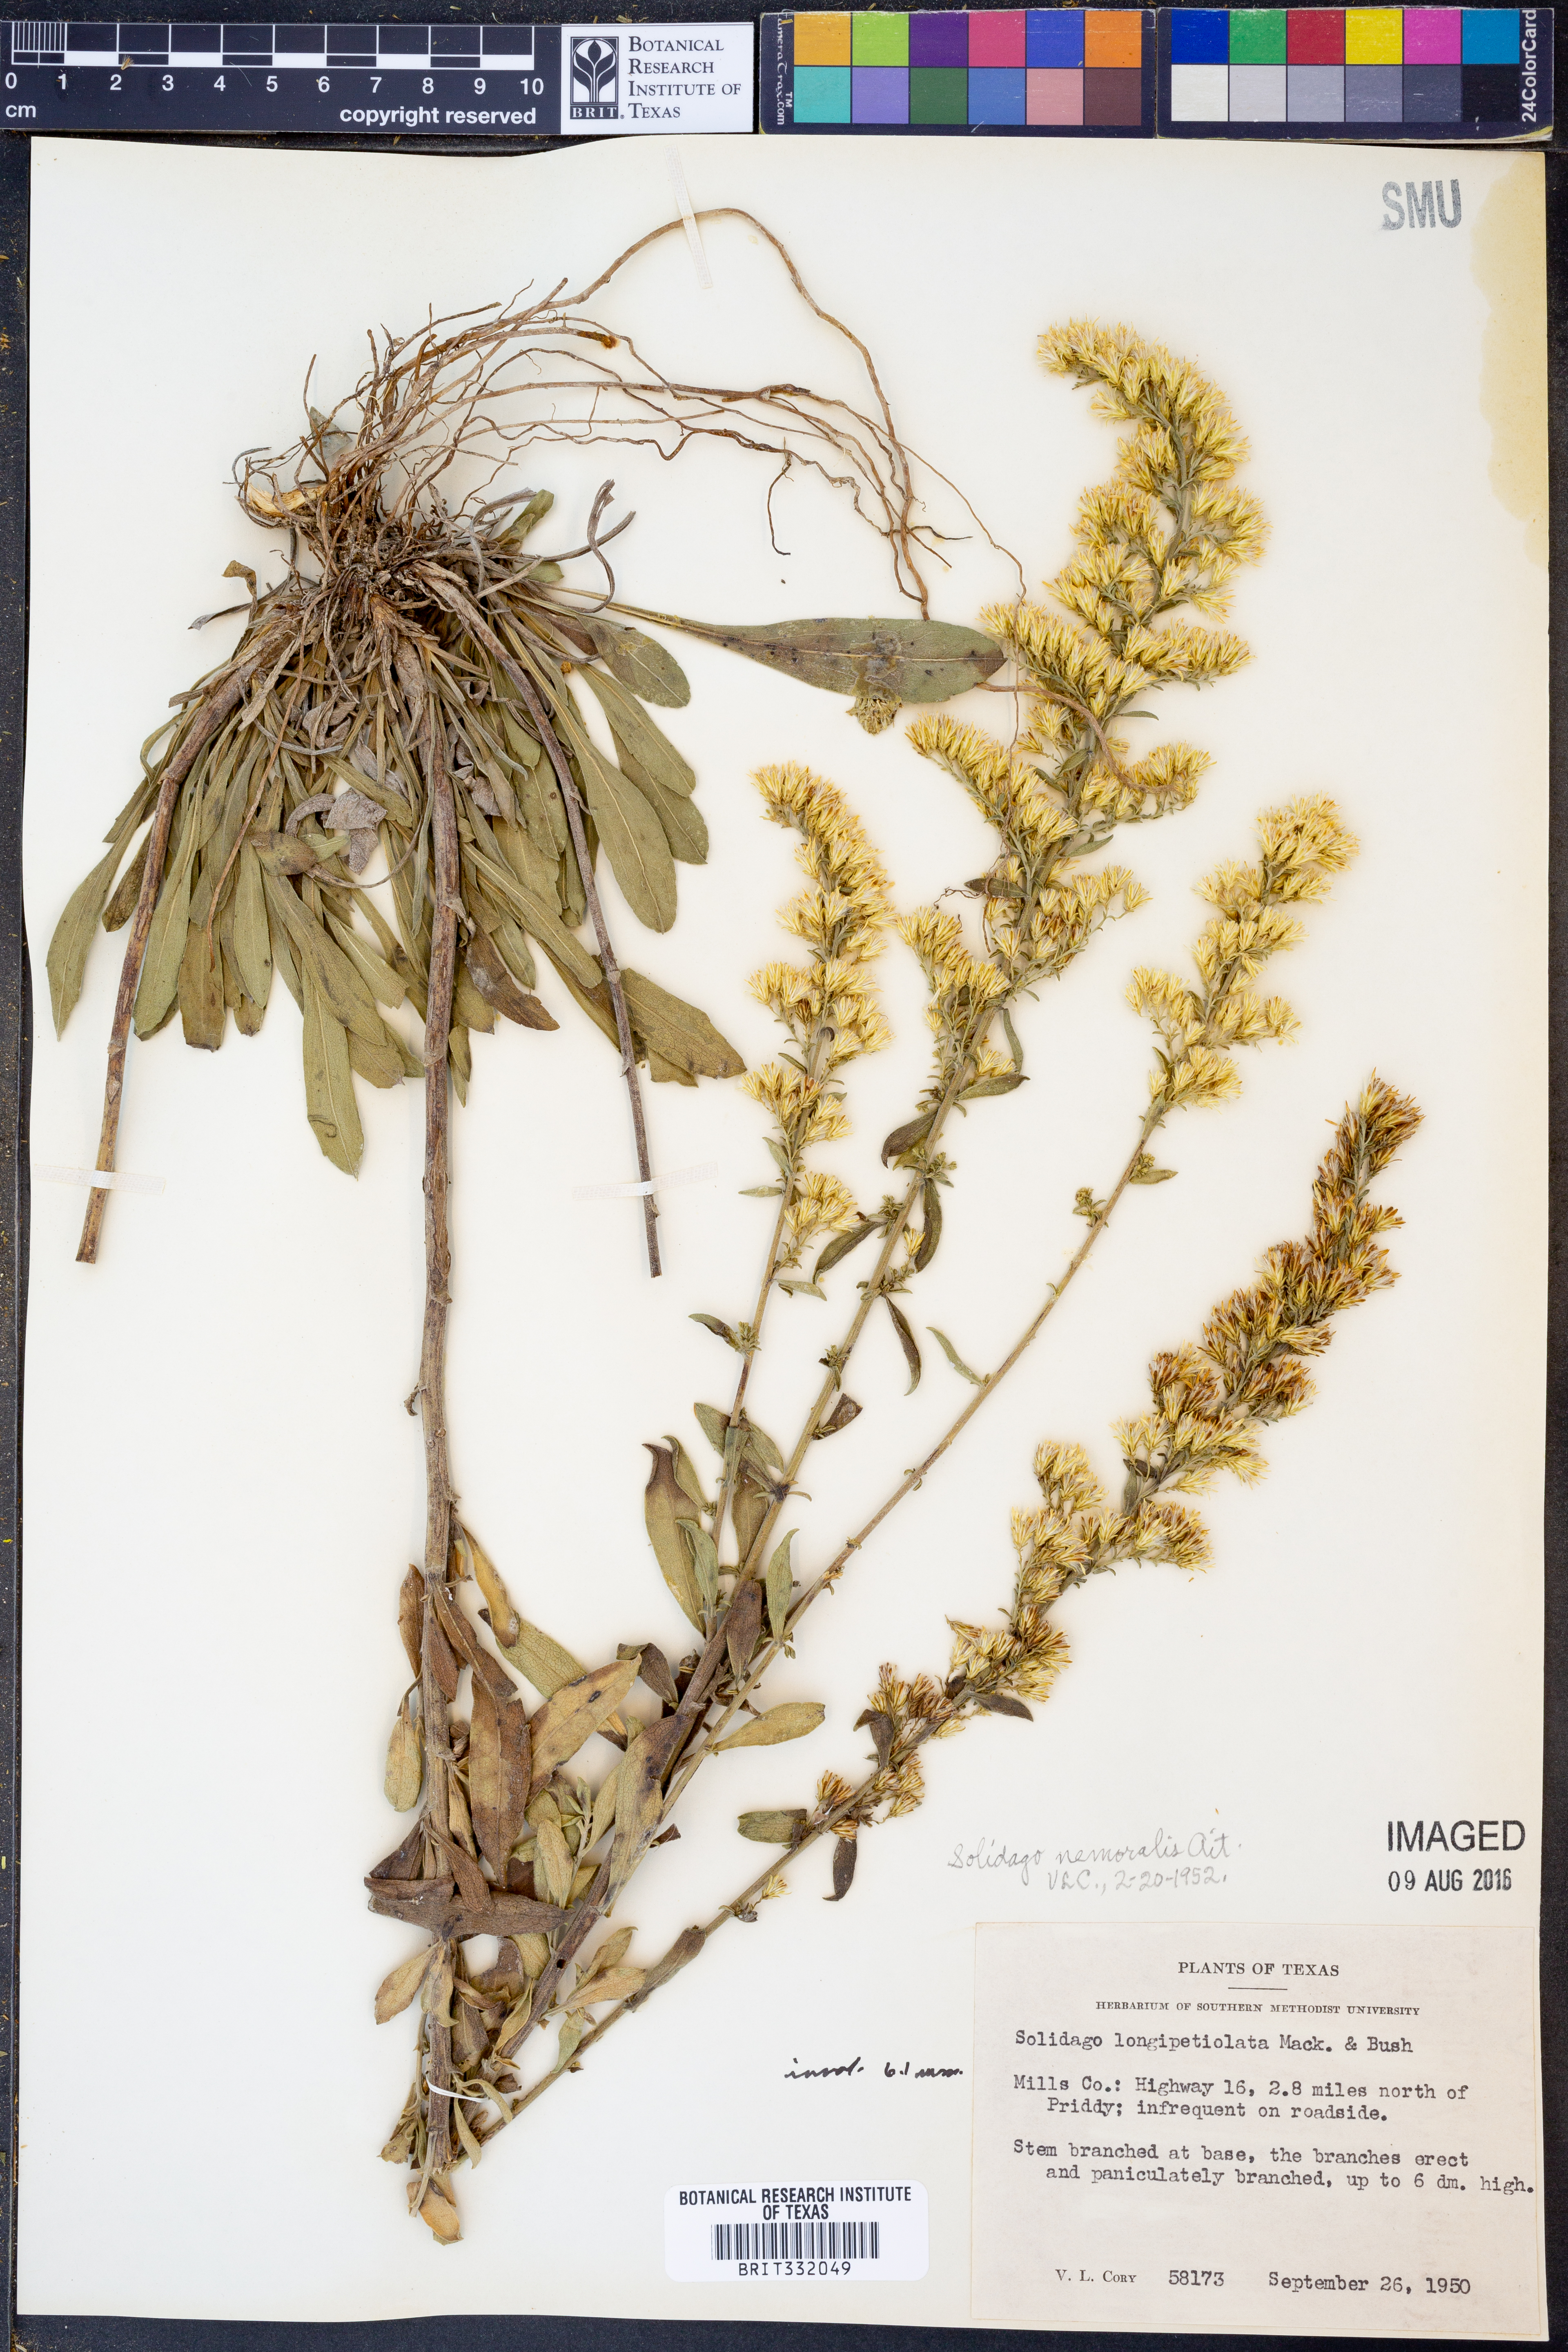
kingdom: Plantae
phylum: Tracheophyta
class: Magnoliopsida
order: Asterales
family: Asteraceae
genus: Solidago
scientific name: Solidago nemoralis
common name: Grey goldenrod
